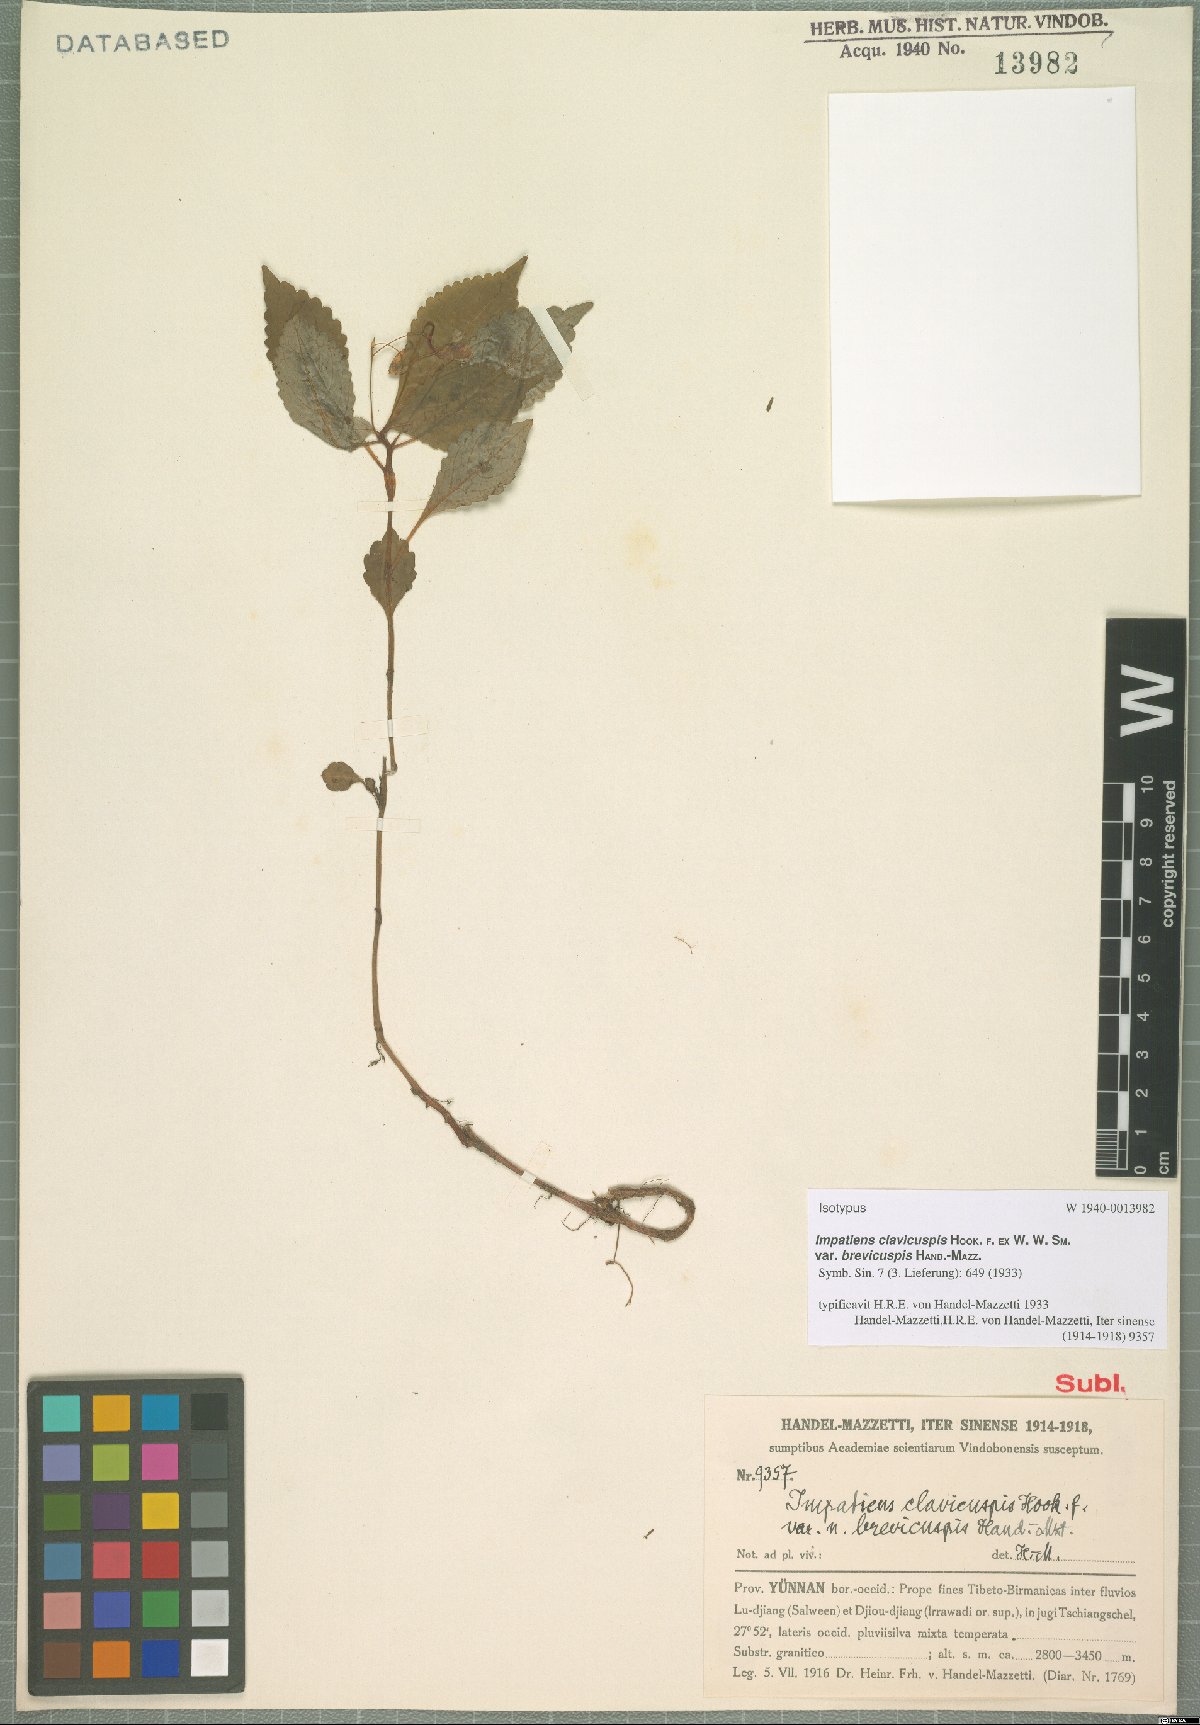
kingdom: Plantae
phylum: Tracheophyta
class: Magnoliopsida
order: Ericales
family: Balsaminaceae
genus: Impatiens
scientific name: Impatiens clavicuspis
